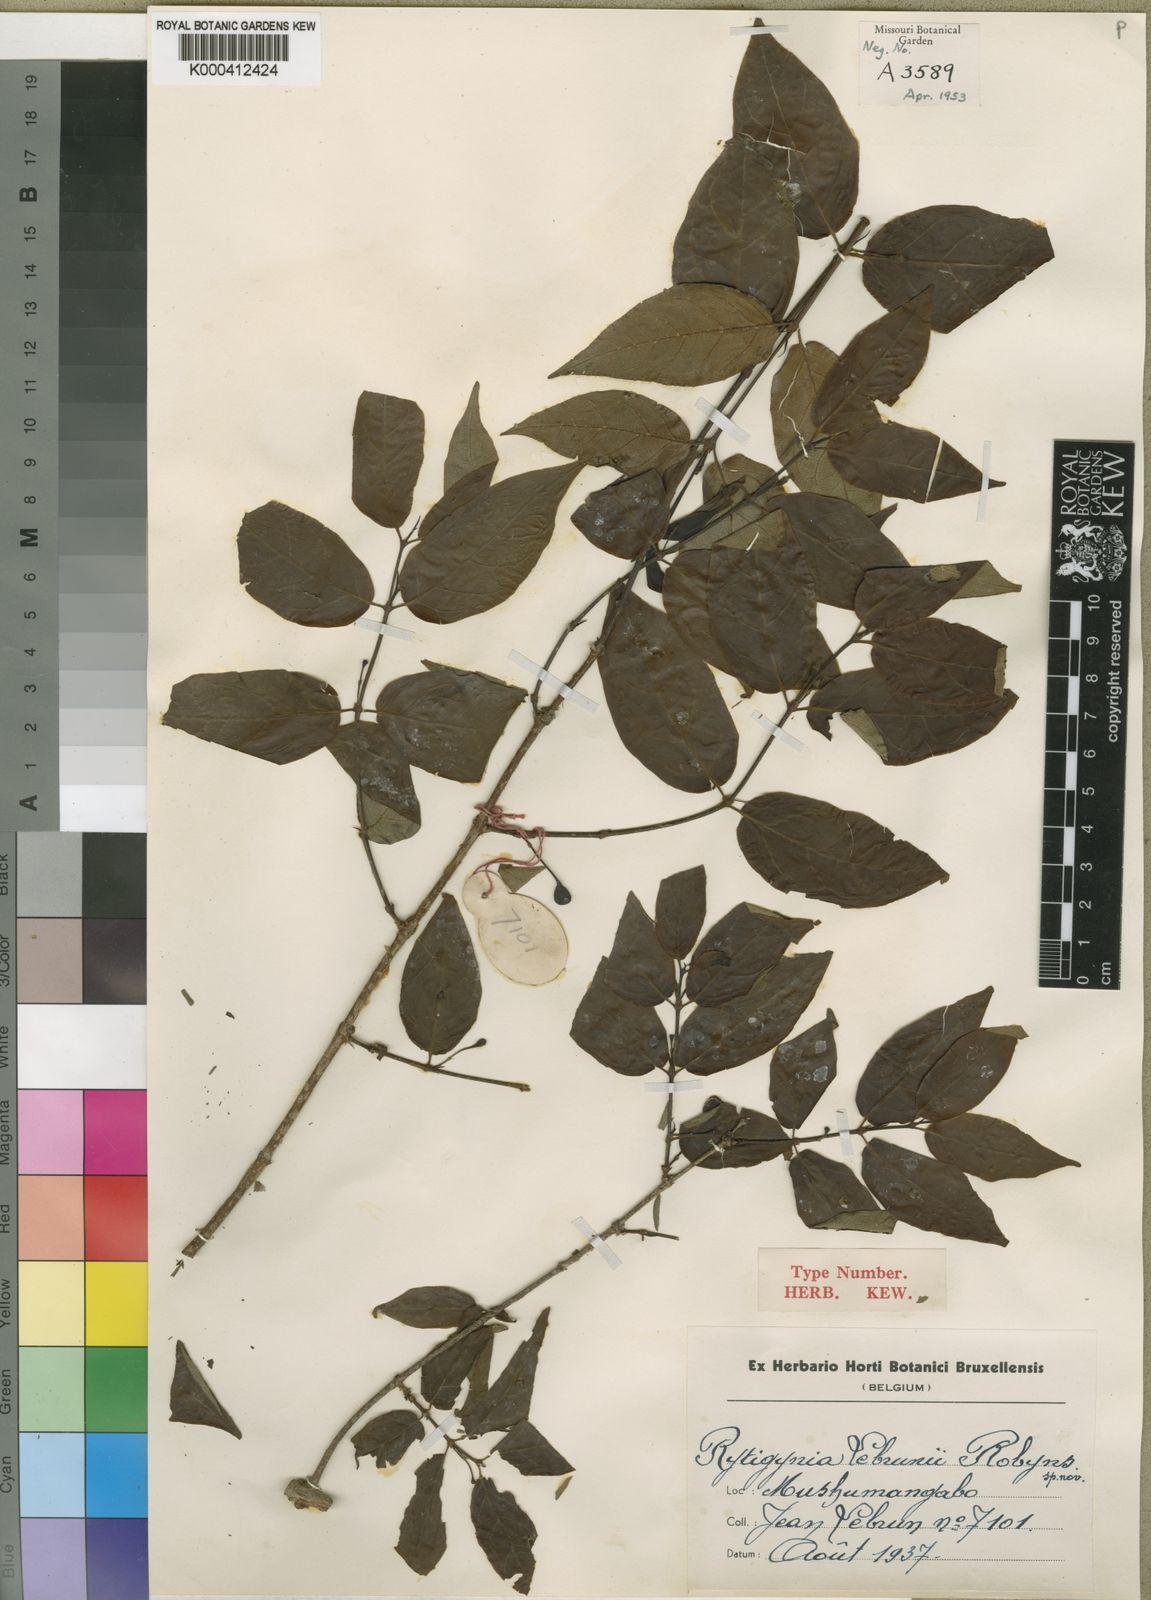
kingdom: Plantae
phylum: Tracheophyta
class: Magnoliopsida
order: Gentianales
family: Rubiaceae
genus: Rytigynia
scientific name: Rytigynia bagshawei
